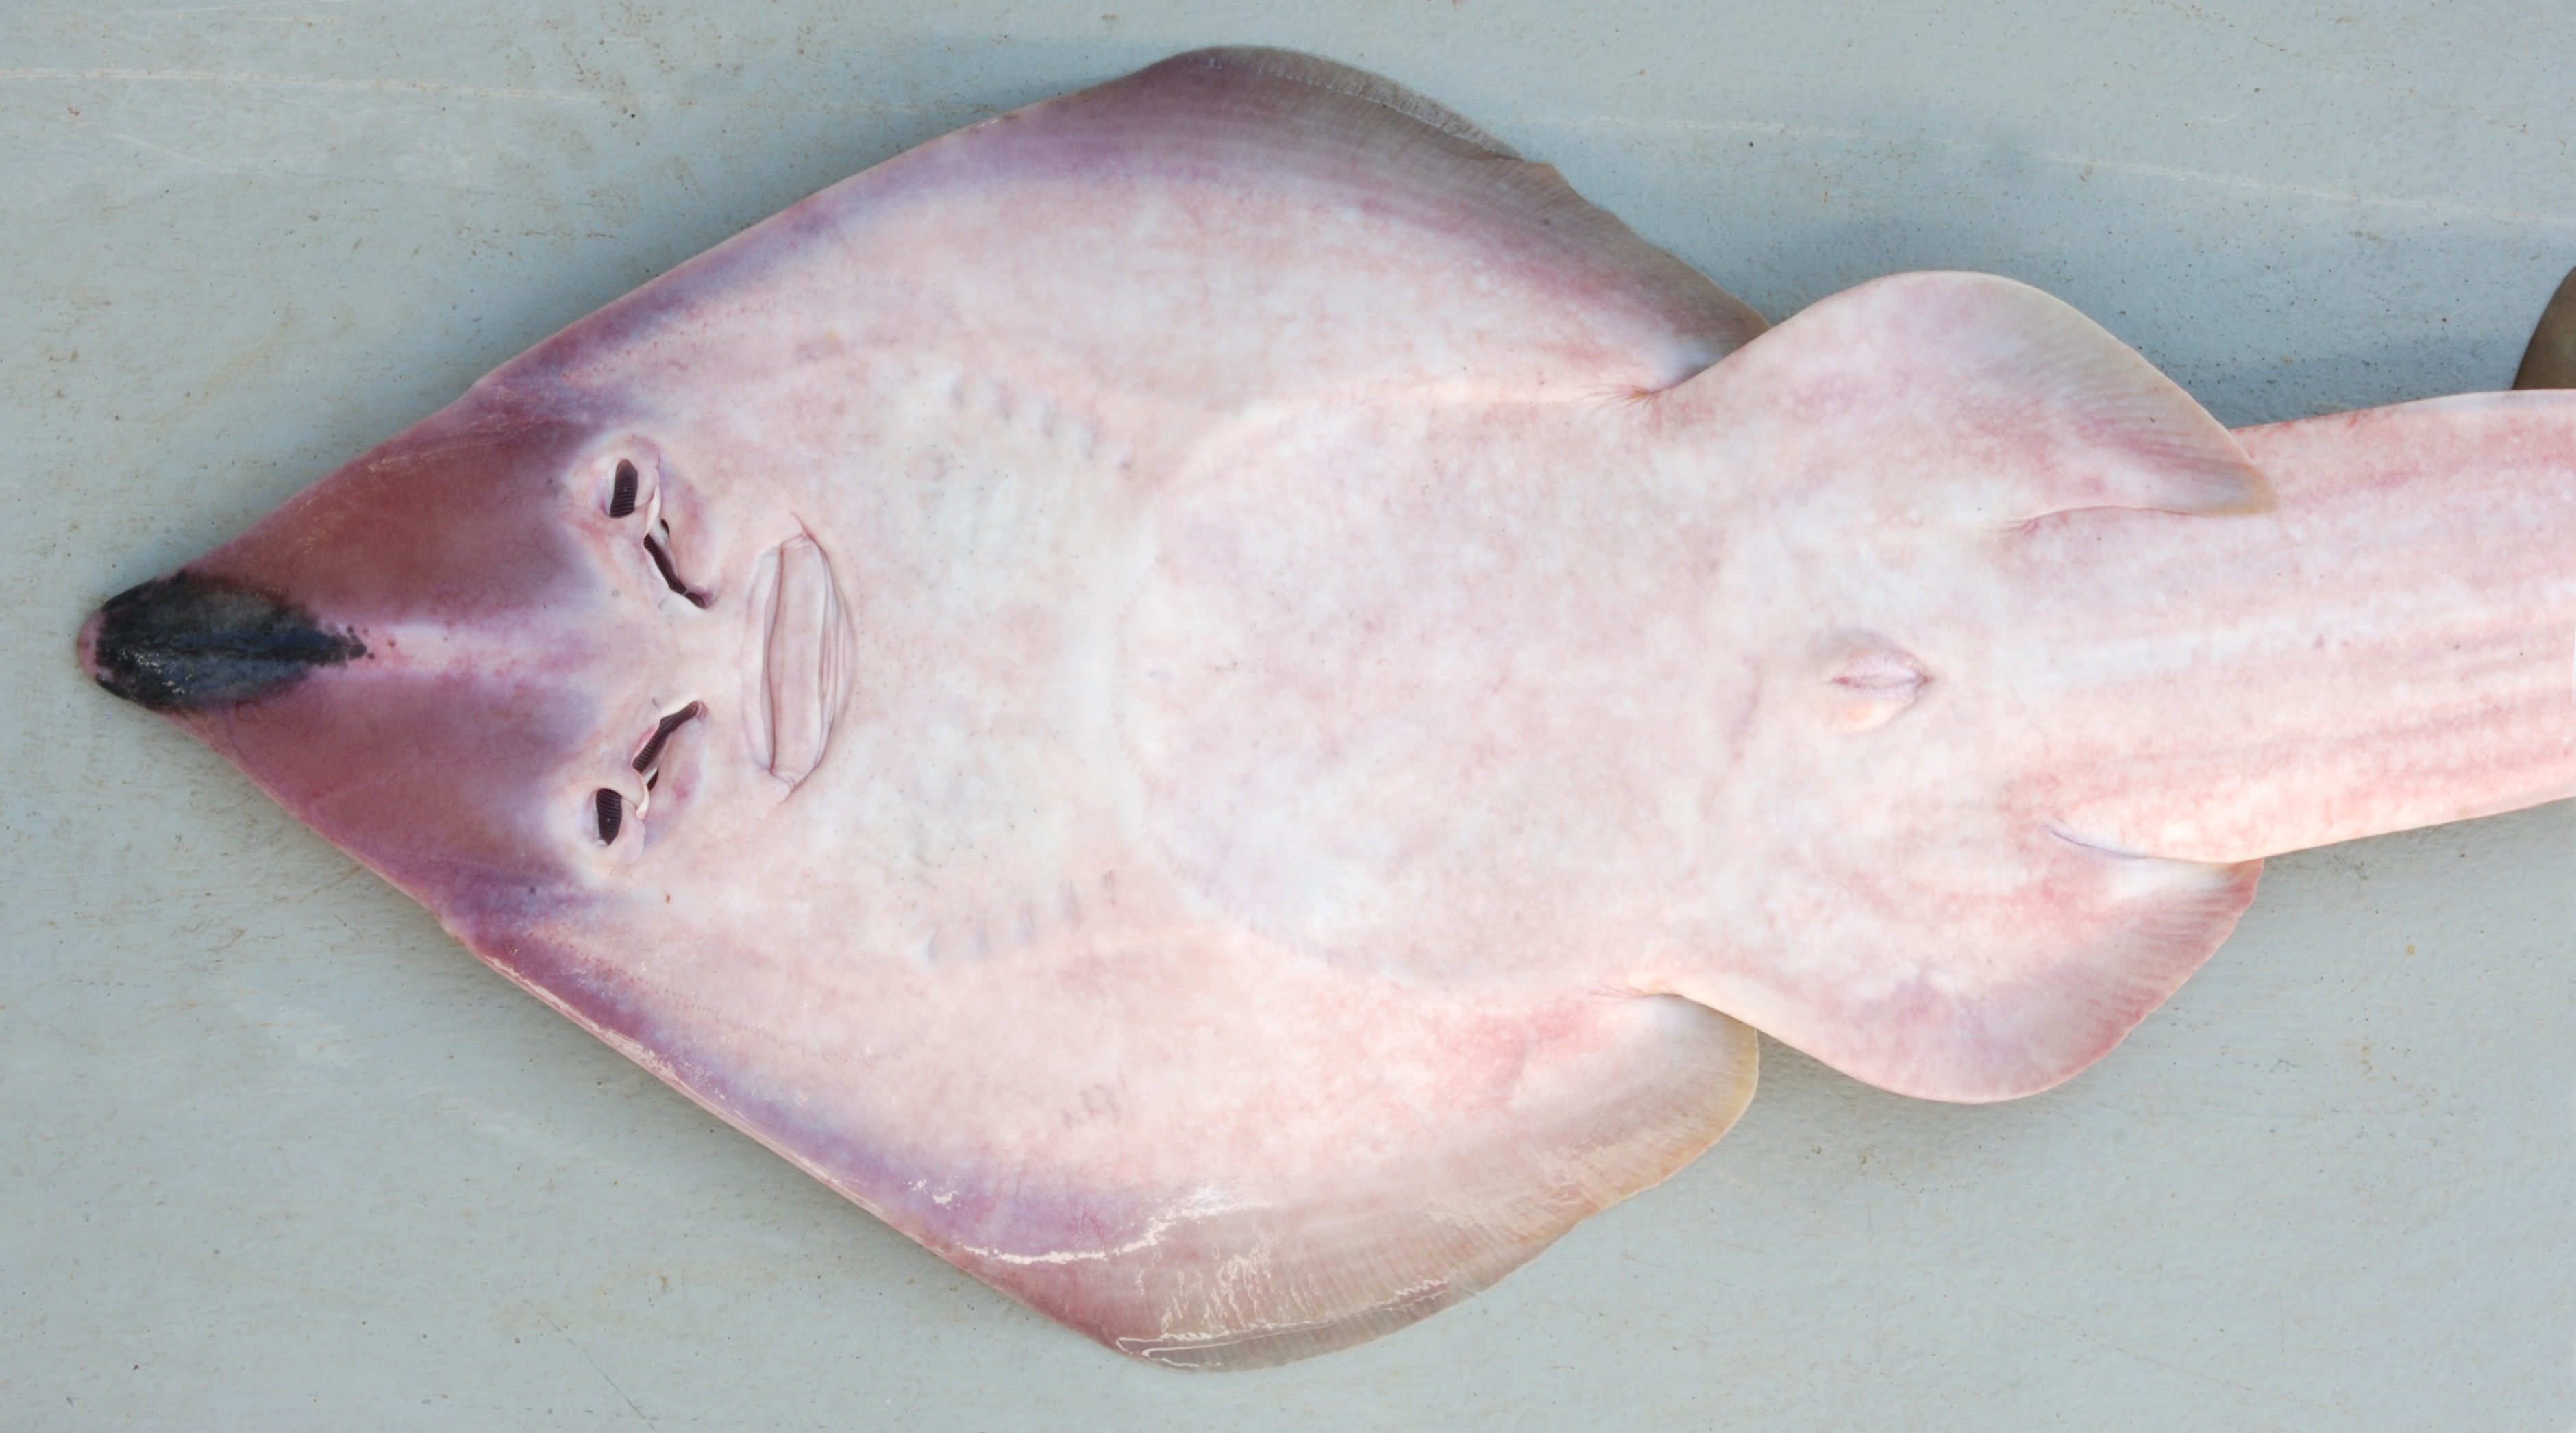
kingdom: Animalia
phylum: Chordata
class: Elasmobranchii
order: Rhinopristiformes
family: Rhinobatidae
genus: Rhinobatos
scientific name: Rhinobatos holcorhynchus
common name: Slender guitarfish
